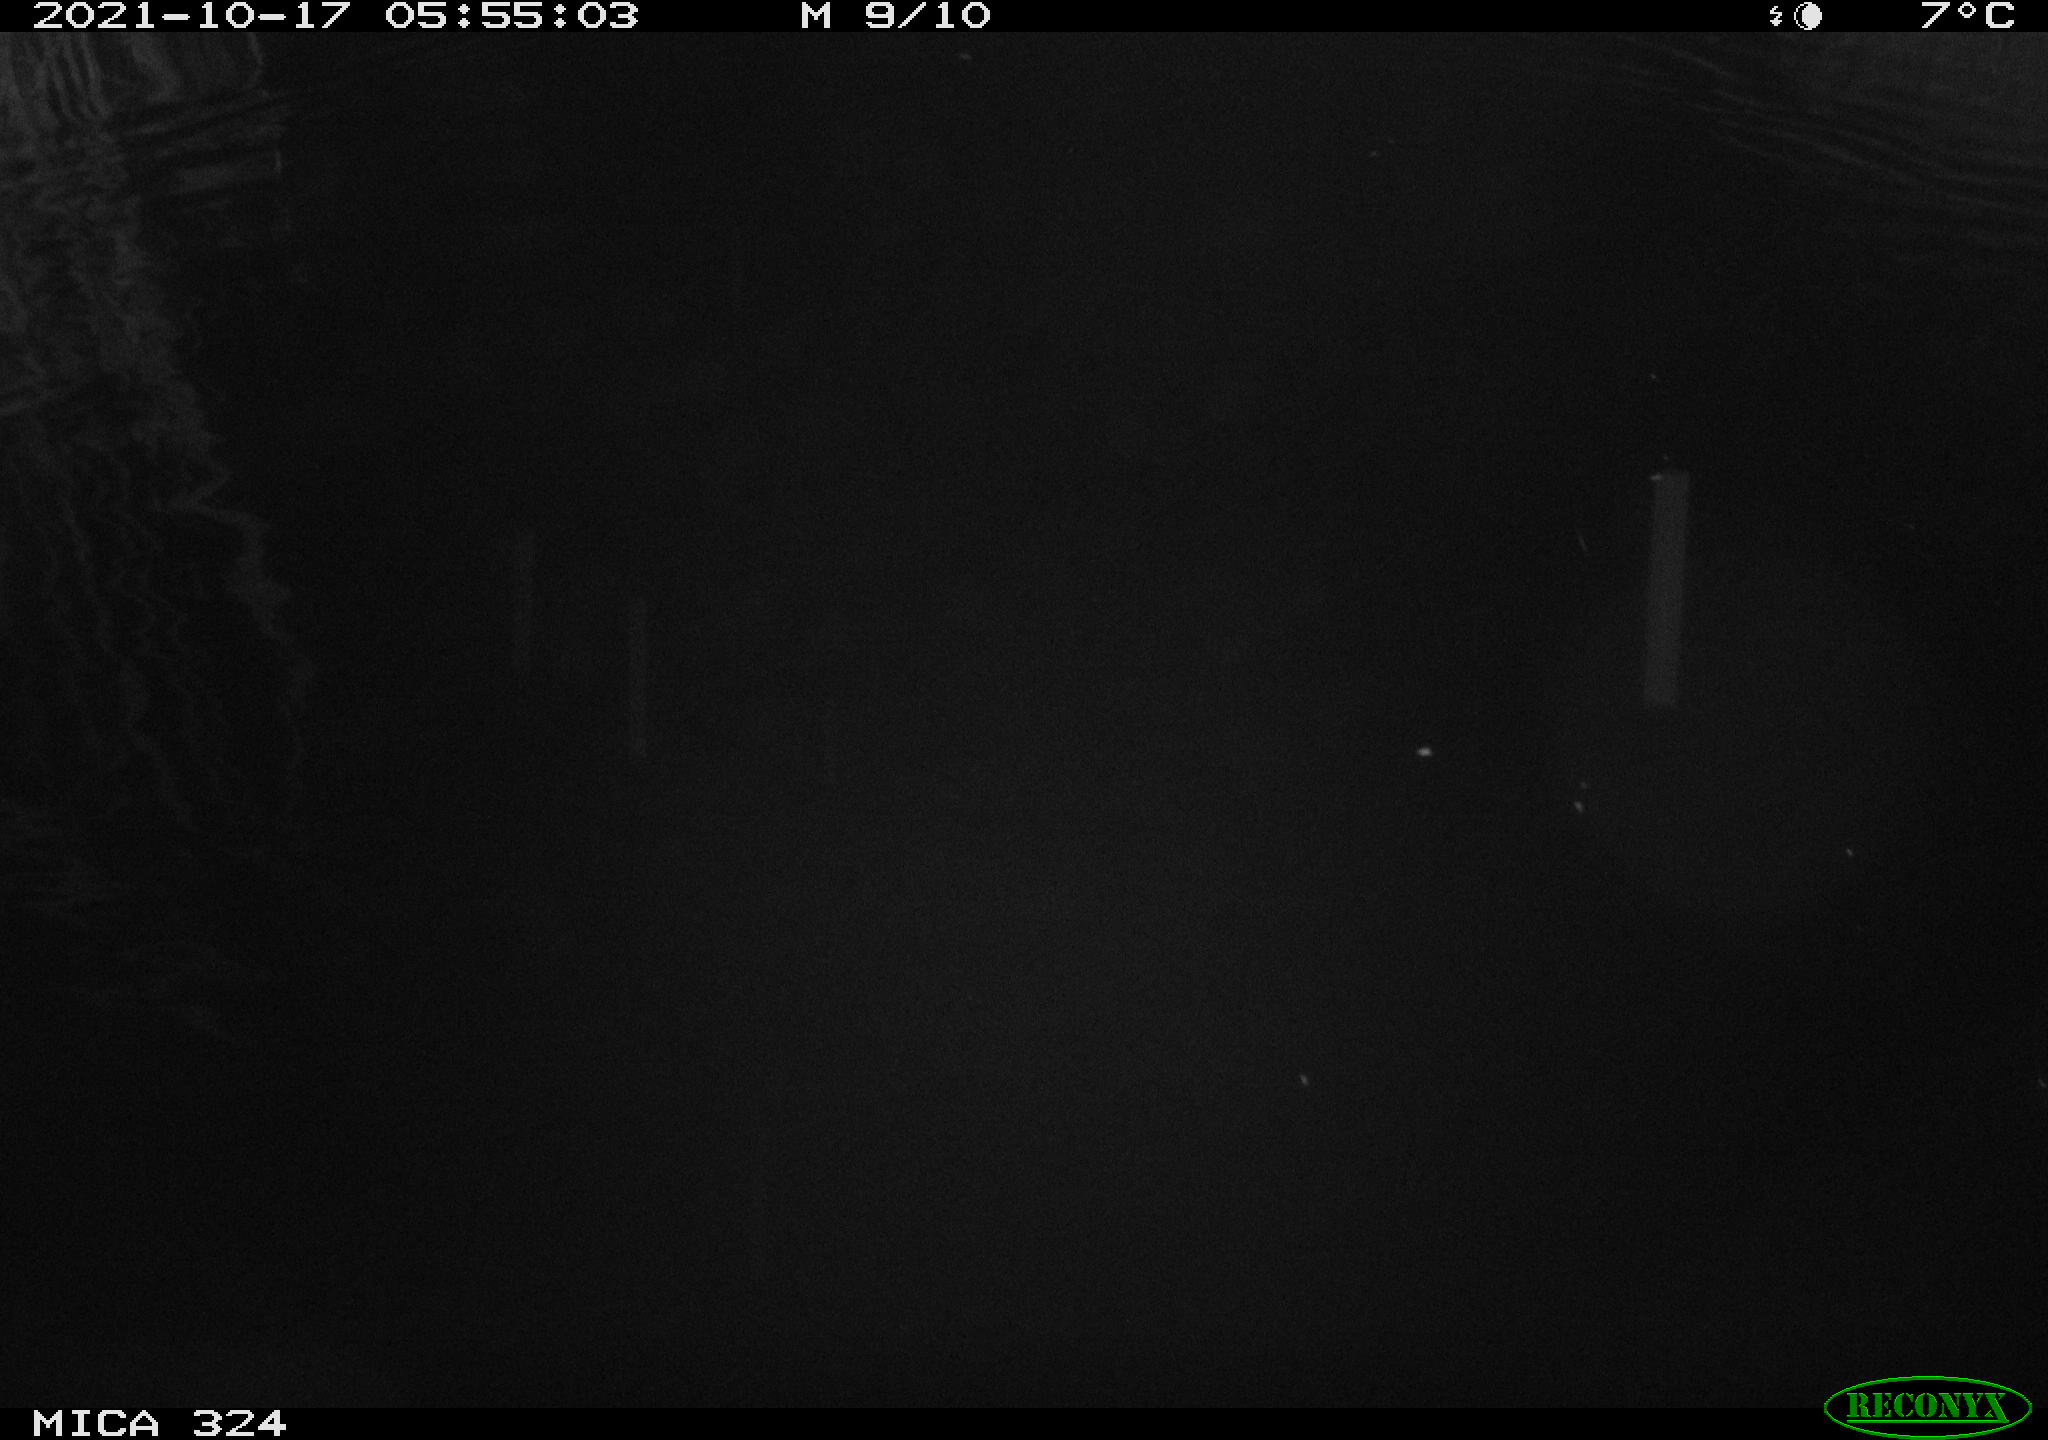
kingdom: Animalia
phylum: Chordata
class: Mammalia
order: Rodentia
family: Cricetidae
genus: Ondatra
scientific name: Ondatra zibethicus
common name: Muskrat
